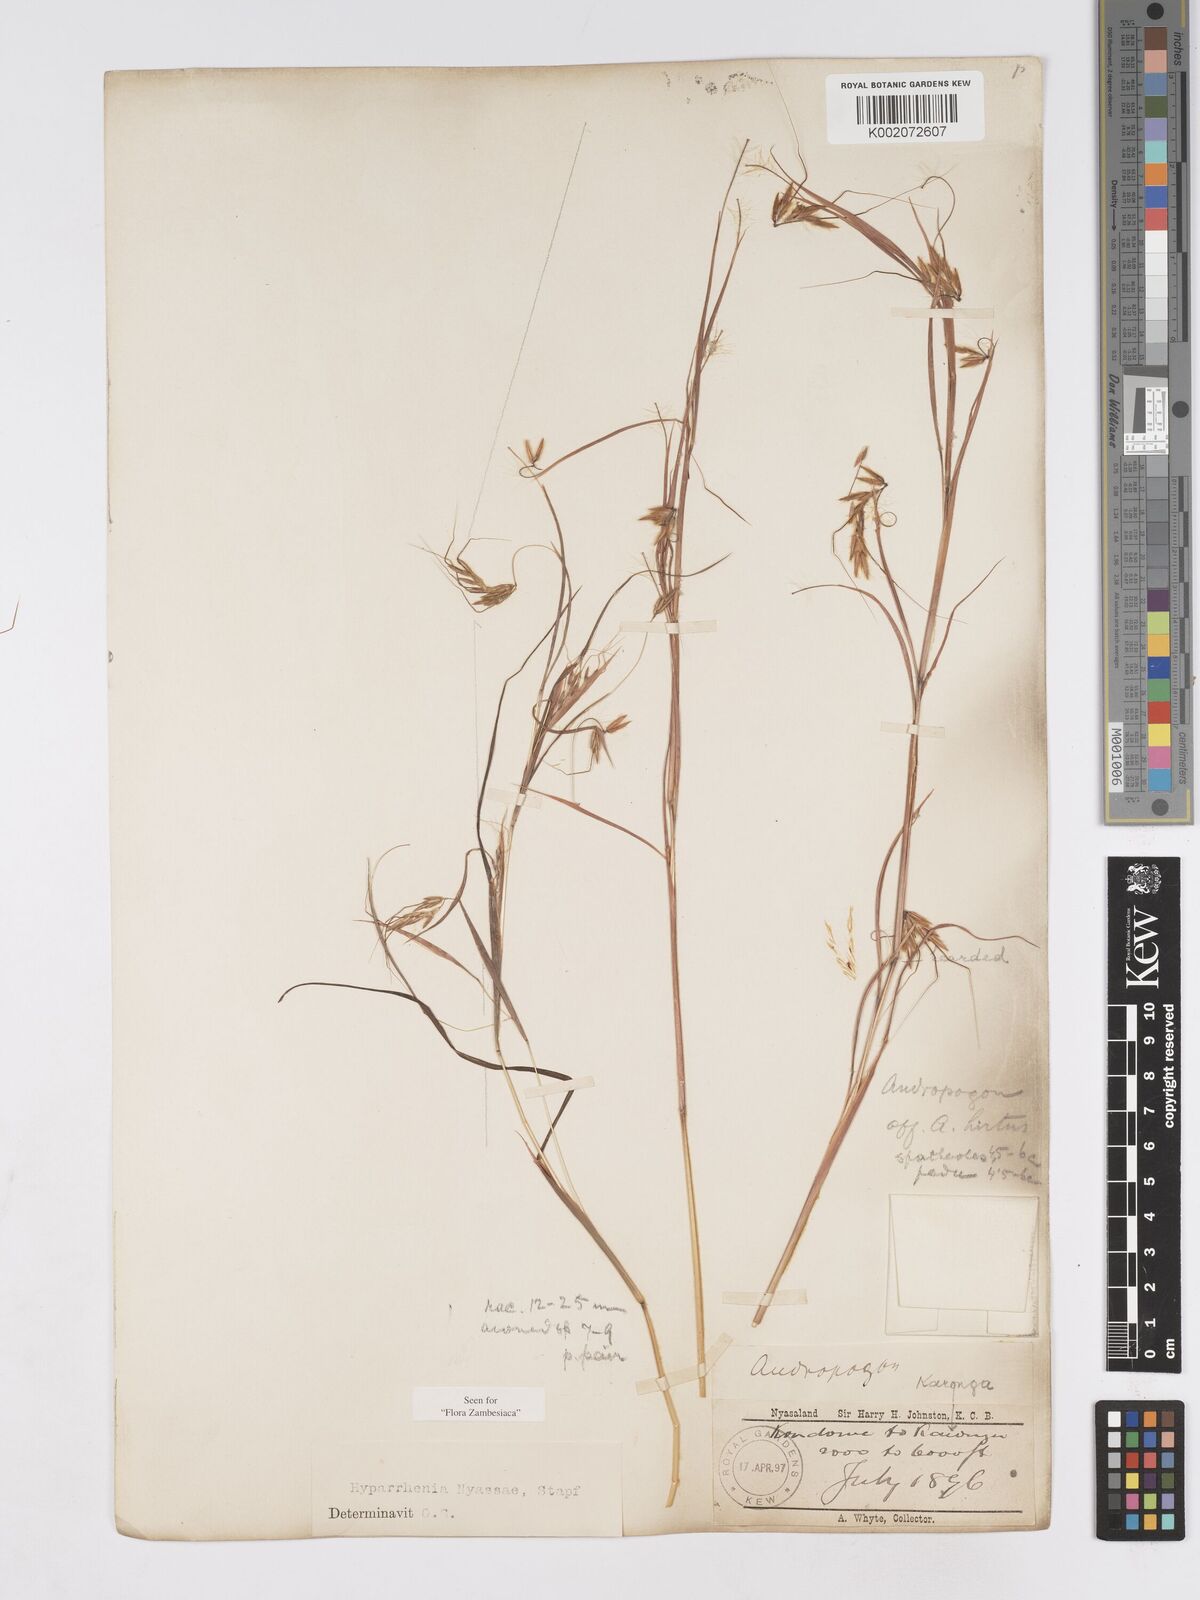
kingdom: Plantae
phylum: Tracheophyta
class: Liliopsida
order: Poales
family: Poaceae
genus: Hyparrhenia
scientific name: Hyparrhenia nyassae
